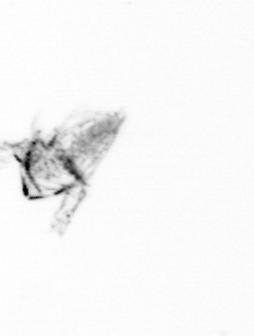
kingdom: Animalia
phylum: Arthropoda
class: Copepoda
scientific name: Copepoda
